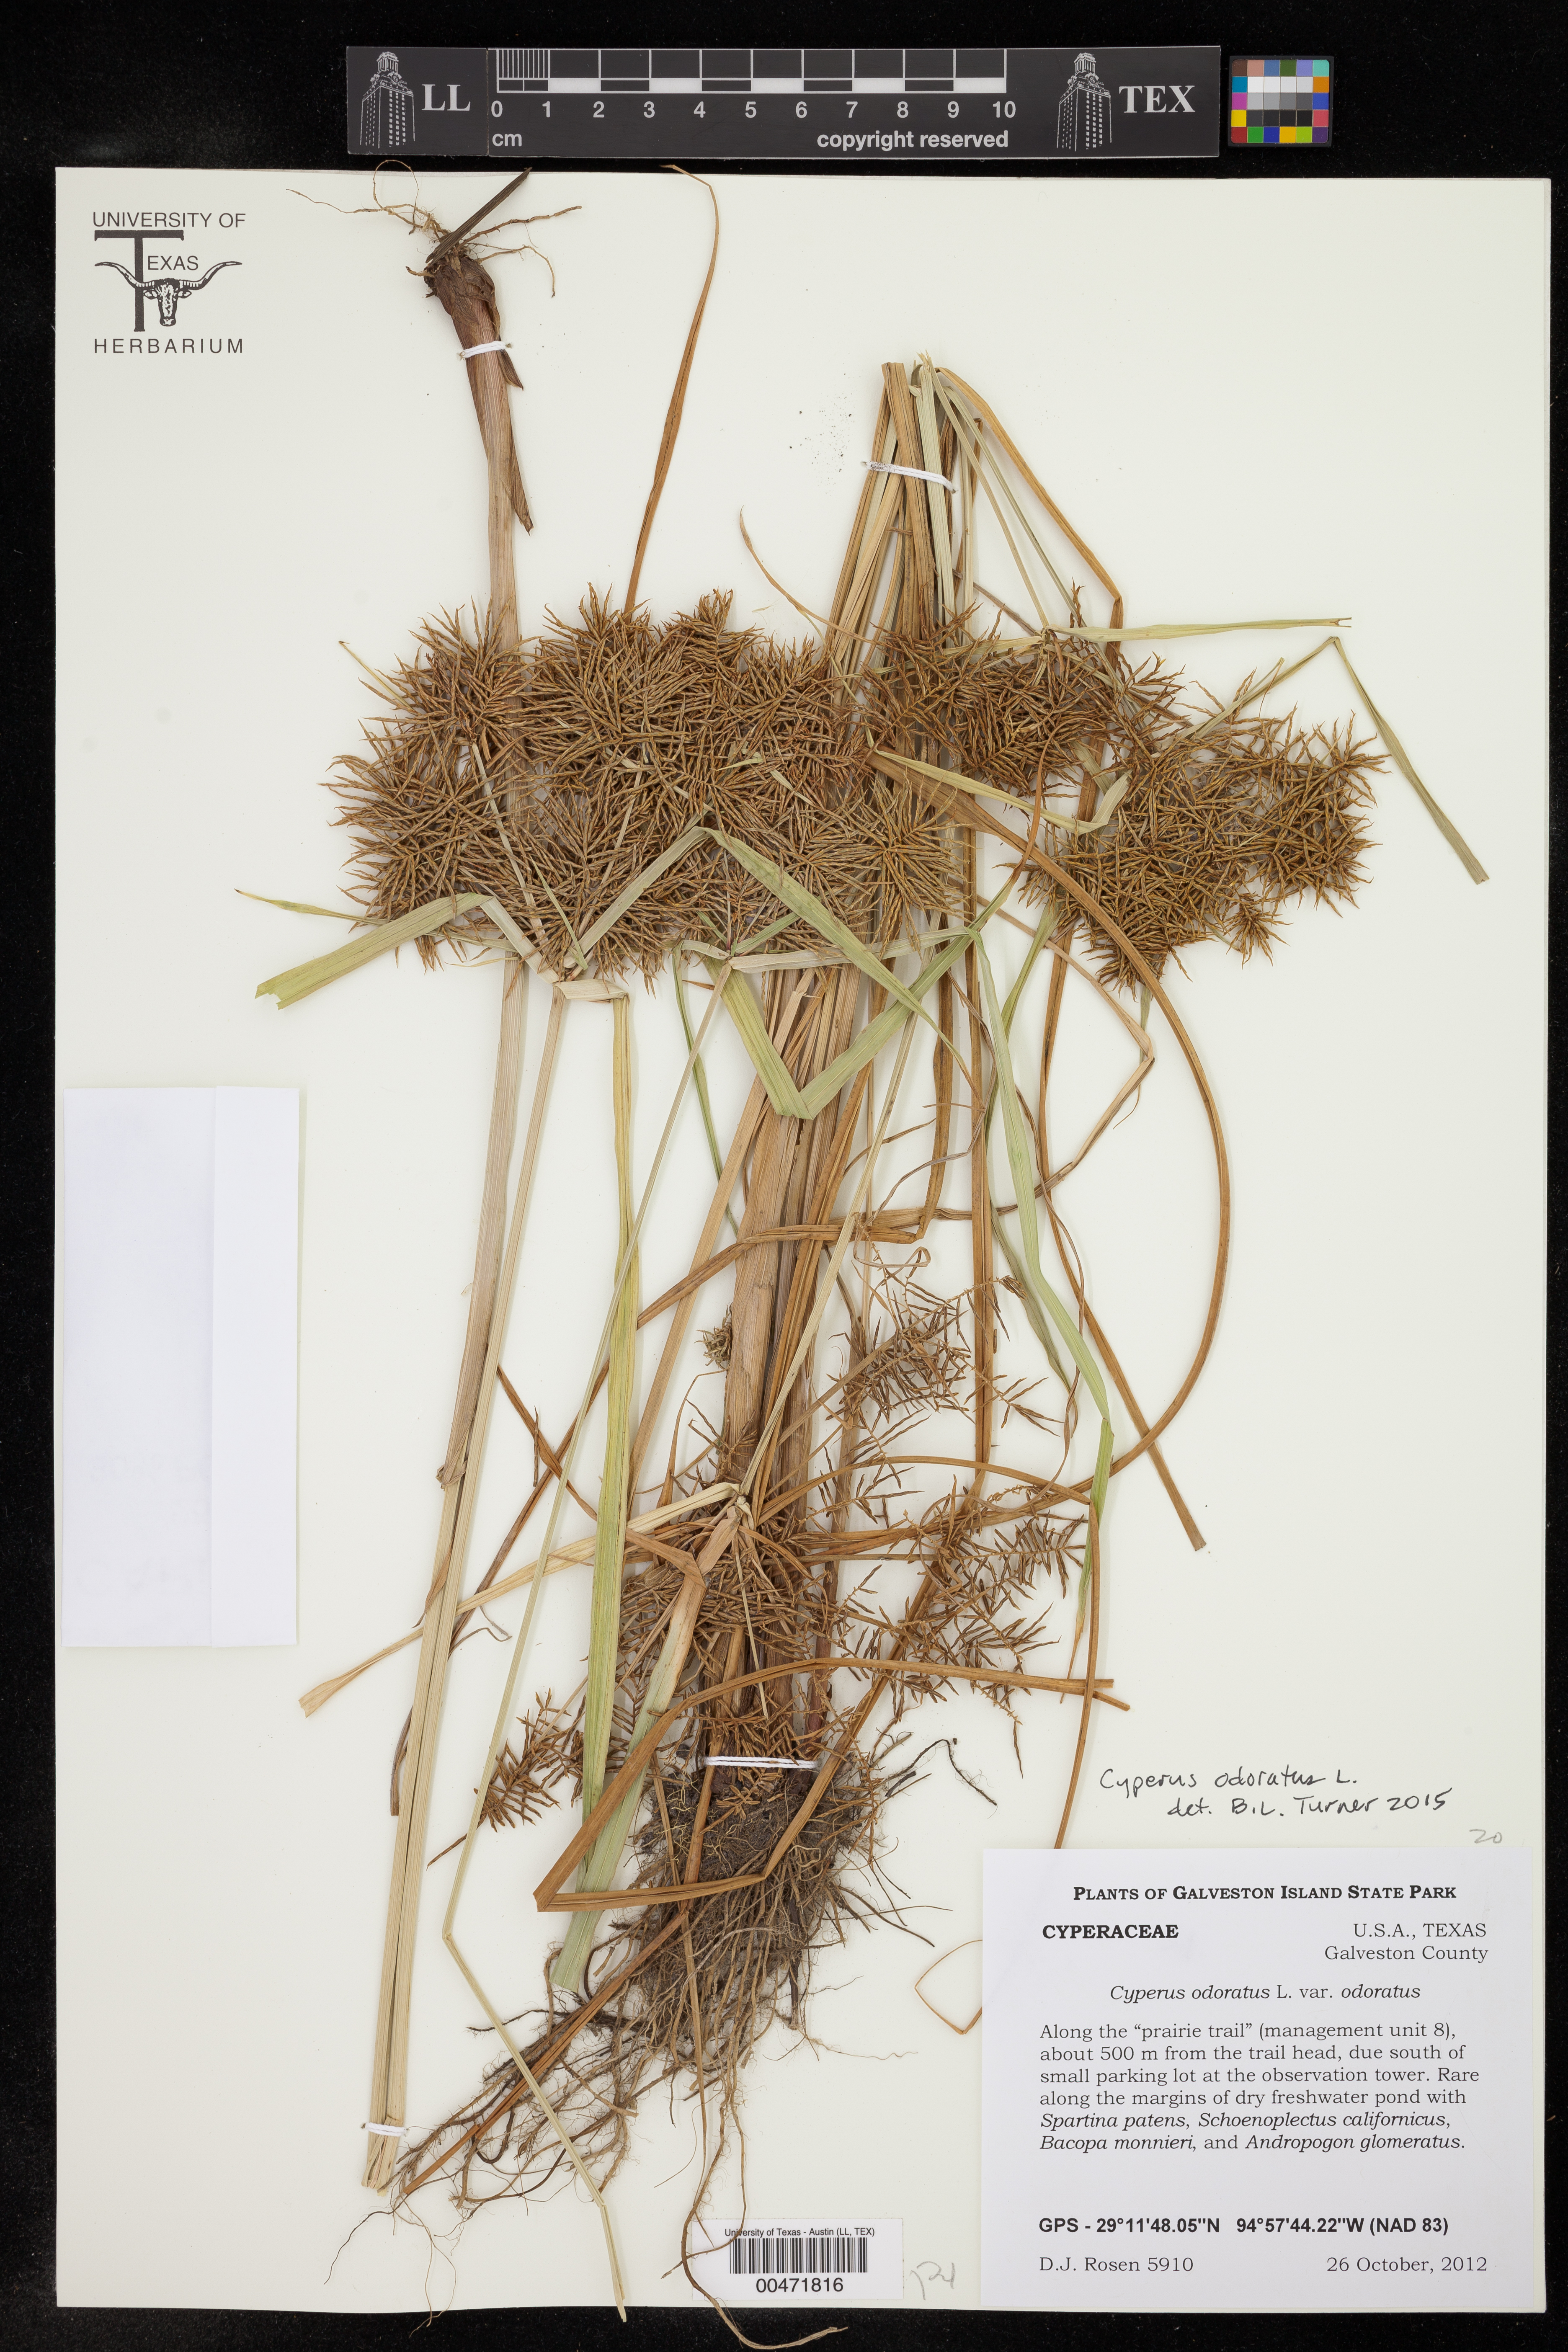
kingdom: Plantae
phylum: Tracheophyta
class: Liliopsida
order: Poales
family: Cyperaceae
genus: Cyperus
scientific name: Cyperus odoratus
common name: Fragrant flatsedge
